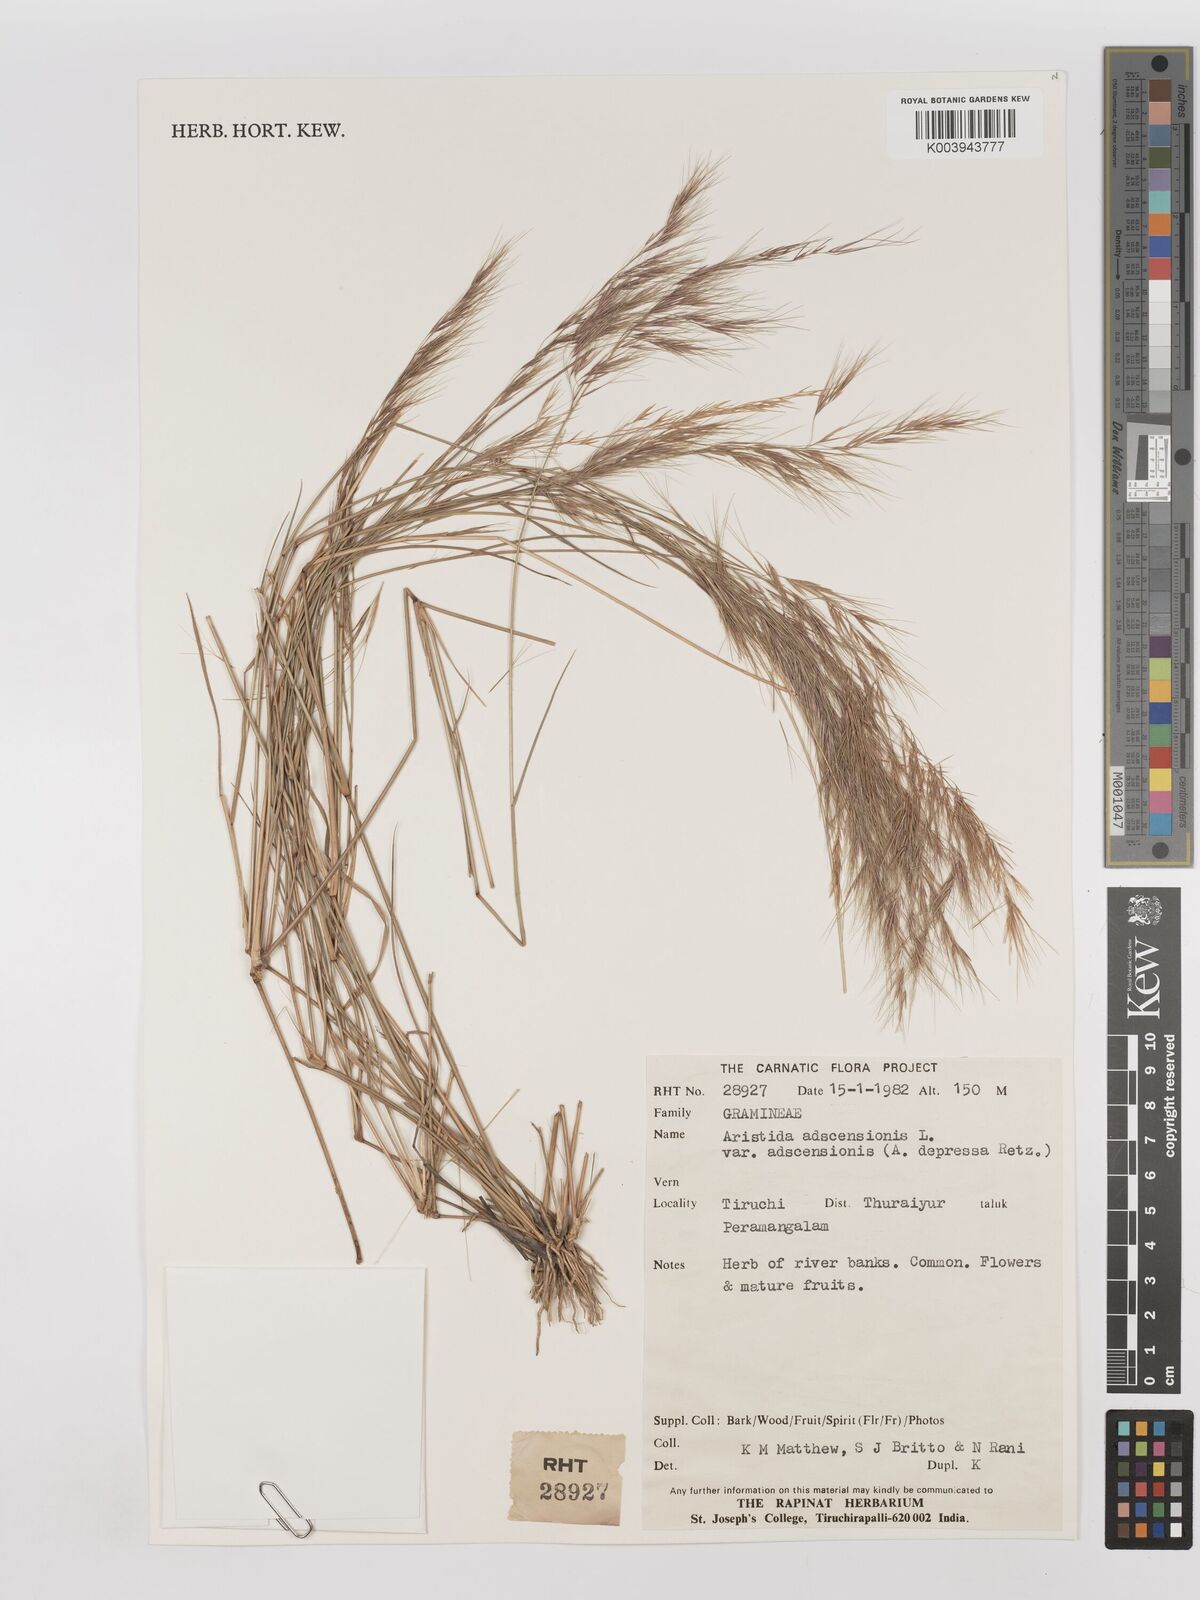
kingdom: Plantae
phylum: Tracheophyta
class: Liliopsida
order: Poales
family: Poaceae
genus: Aristida
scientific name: Aristida adscensionis
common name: Sixweeks threeawn
